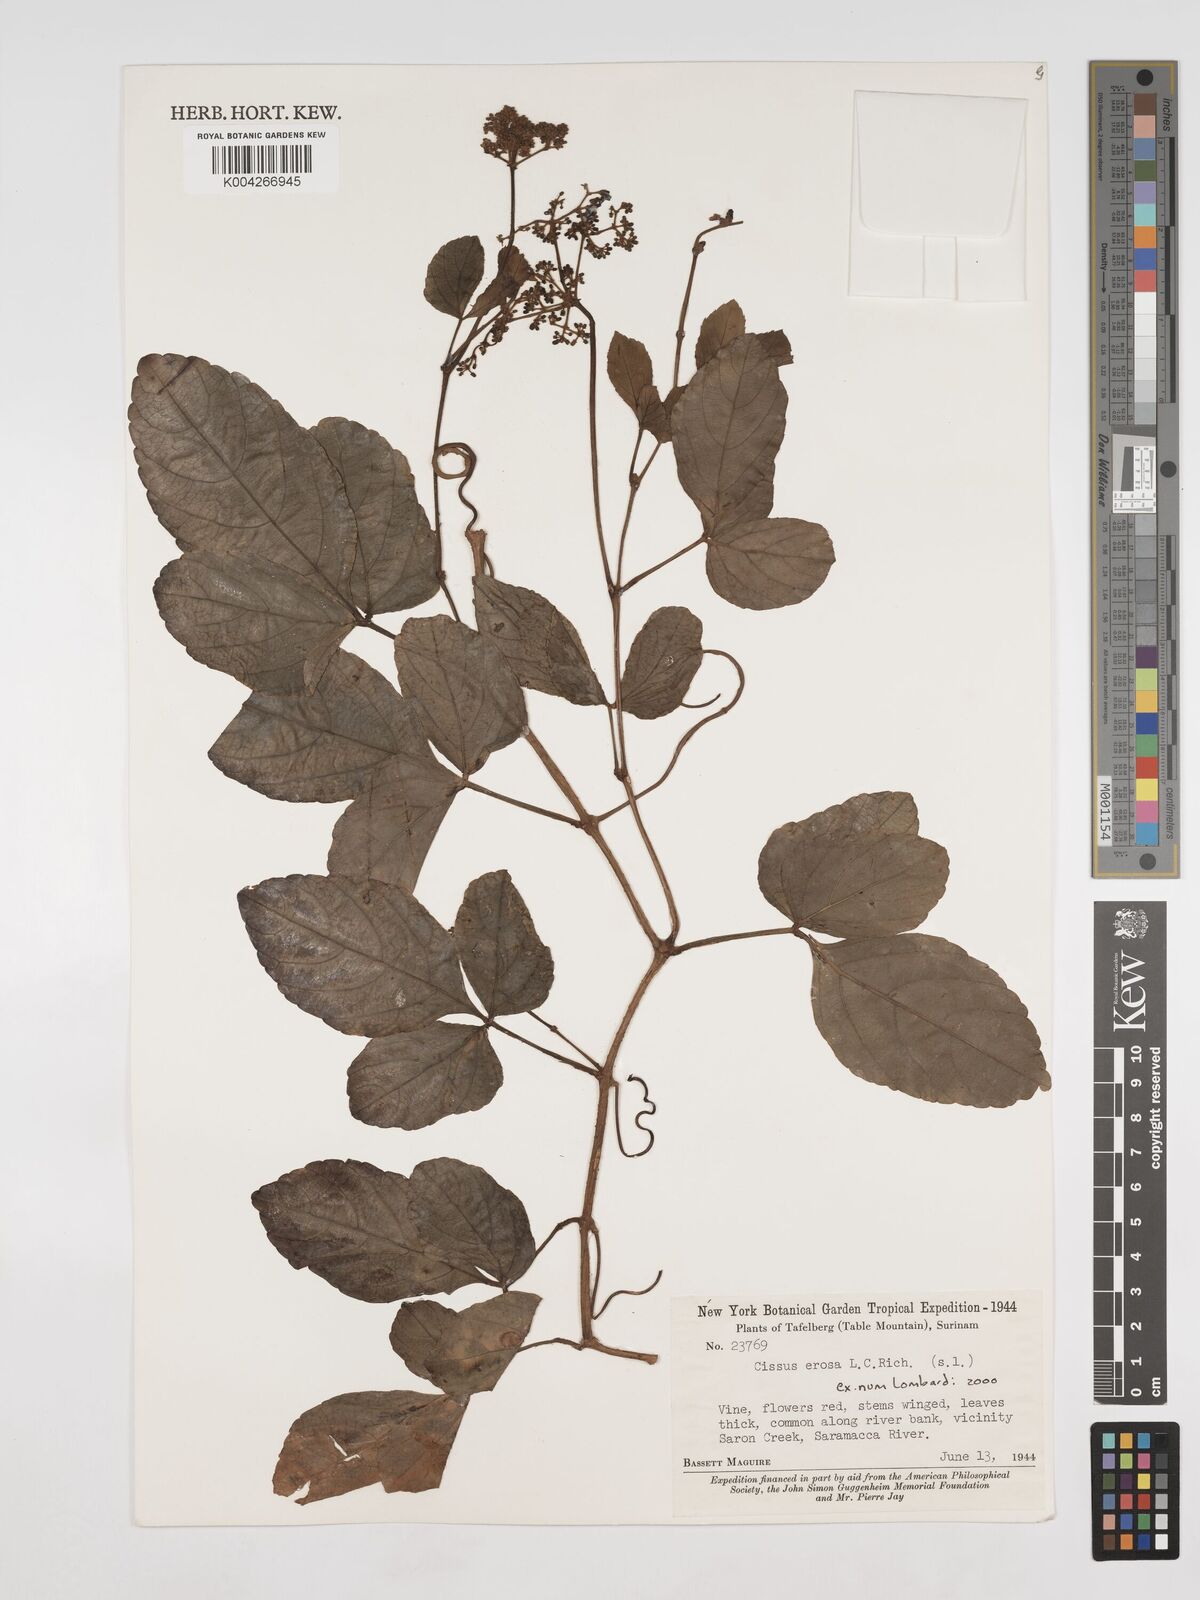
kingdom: Plantae
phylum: Tracheophyta
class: Magnoliopsida
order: Vitales
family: Vitaceae
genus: Cissus
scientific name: Cissus erosa
